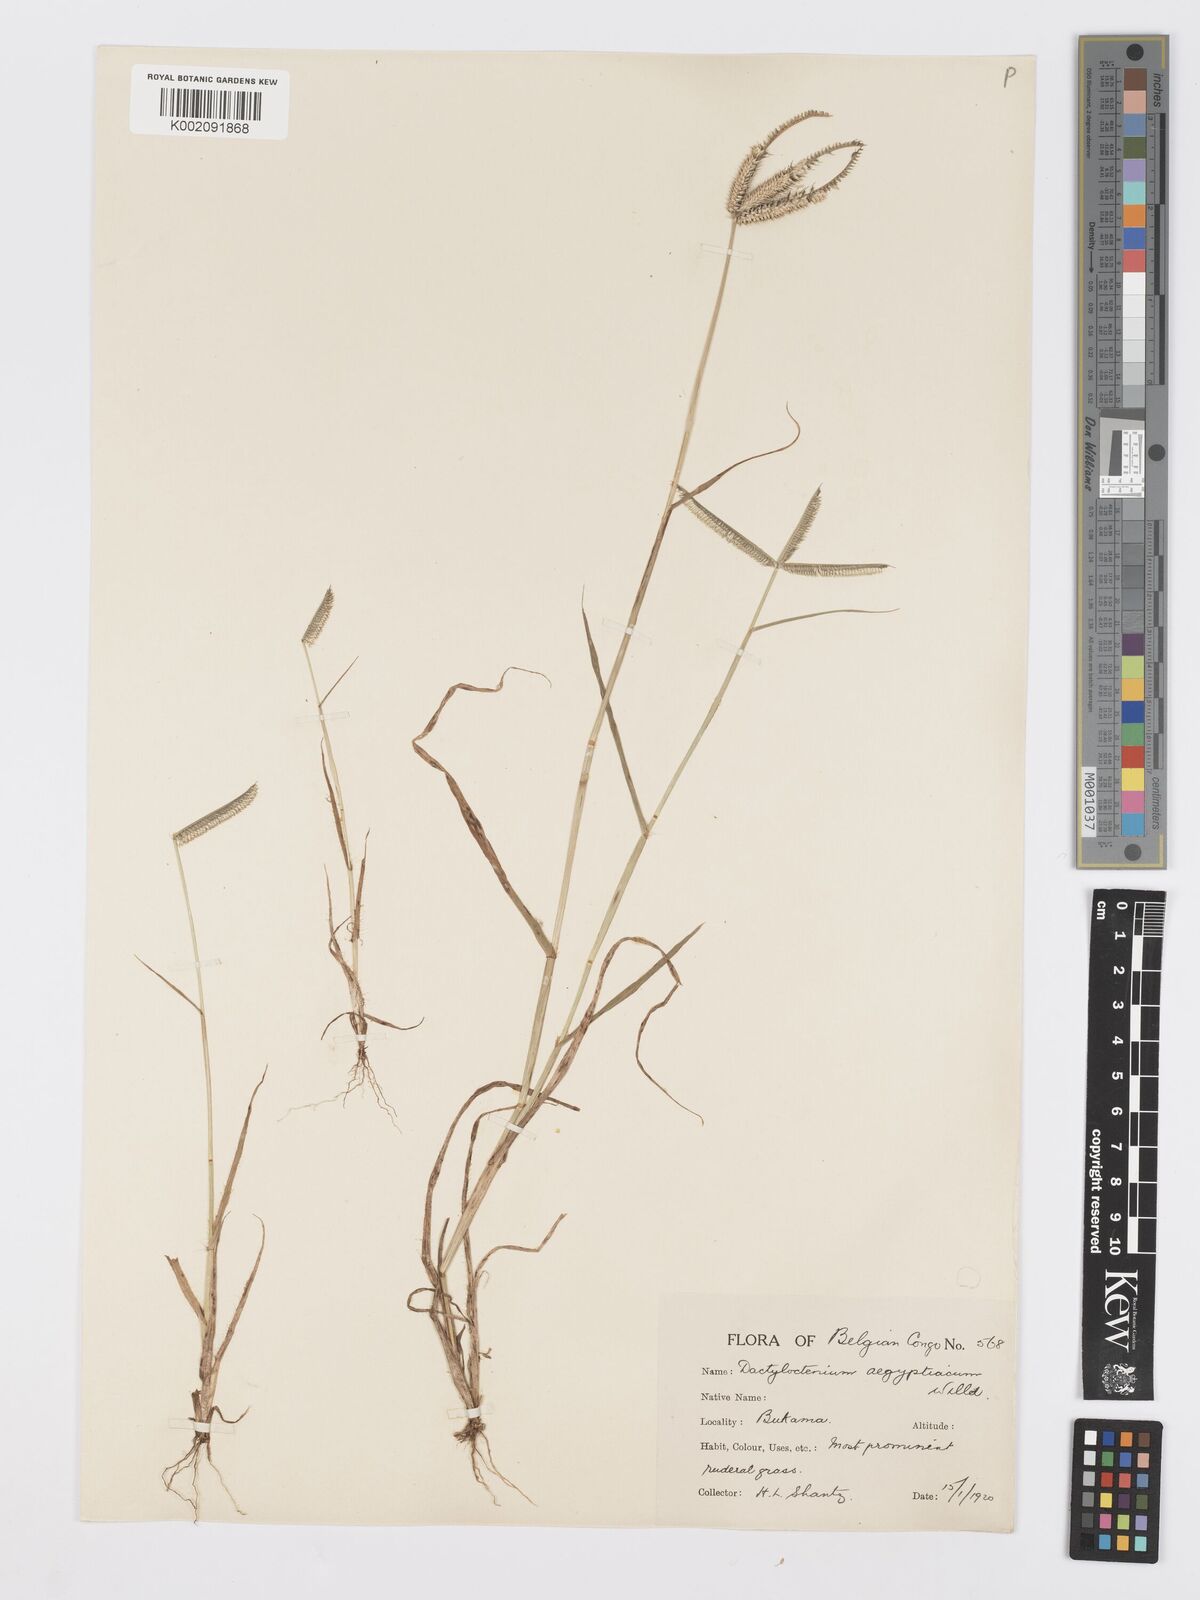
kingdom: Plantae
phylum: Tracheophyta
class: Liliopsida
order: Poales
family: Poaceae
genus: Dactyloctenium
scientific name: Dactyloctenium aegyptium
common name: Egyptian grass
